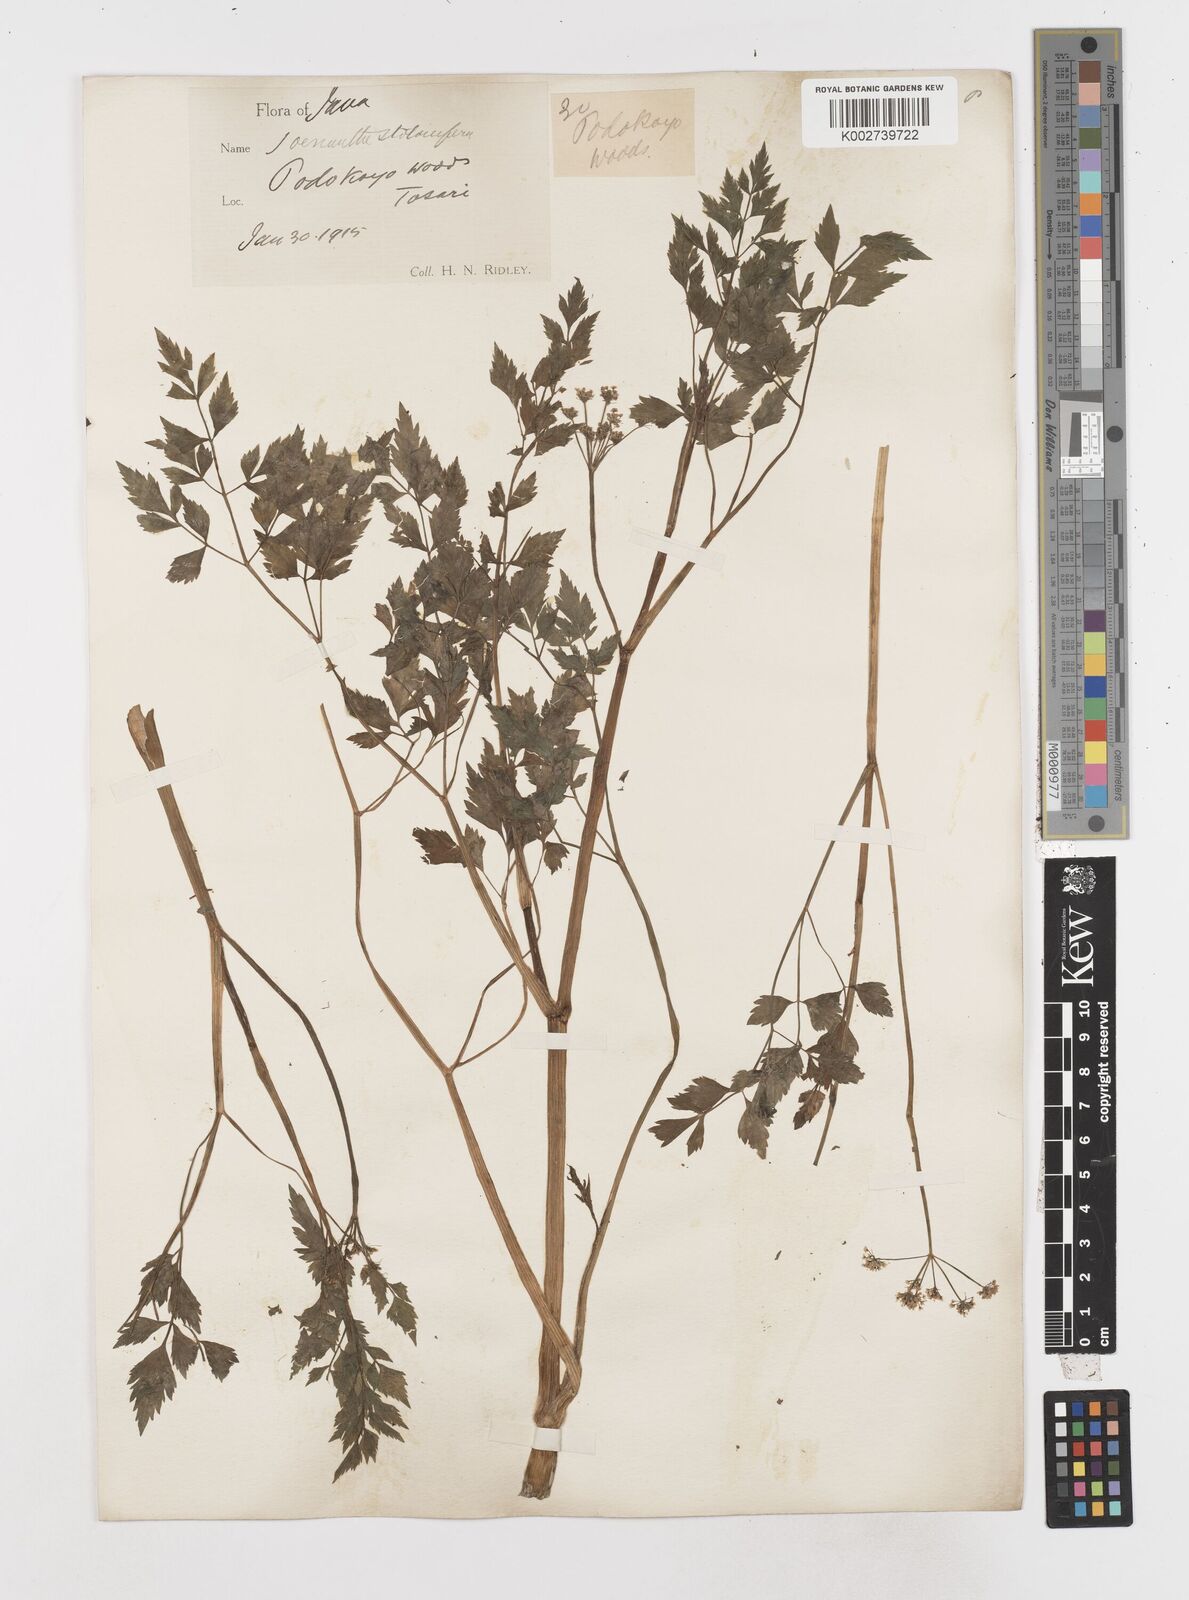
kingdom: Plantae
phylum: Tracheophyta
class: Magnoliopsida
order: Apiales
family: Apiaceae
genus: Oenanthe
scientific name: Oenanthe javanica
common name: Java water-dropwort
